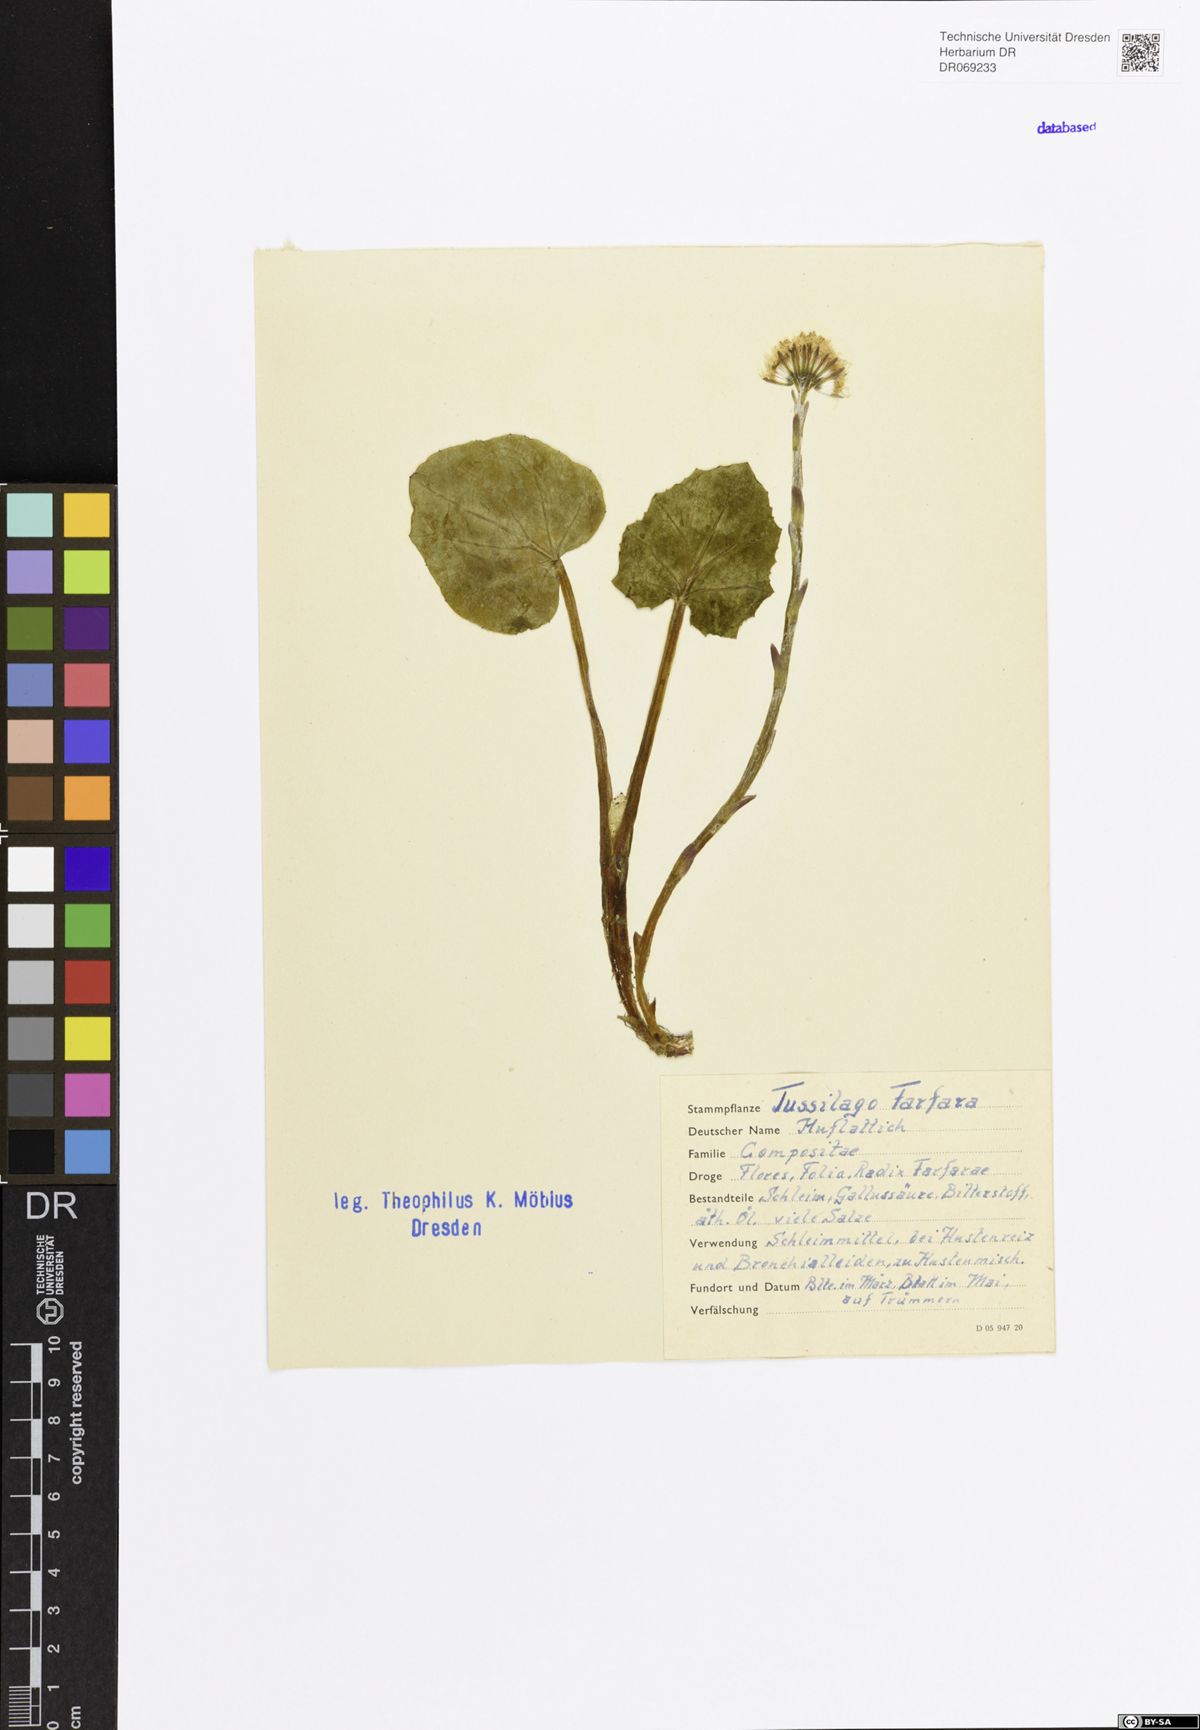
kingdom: Plantae
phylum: Tracheophyta
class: Magnoliopsida
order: Asterales
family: Asteraceae
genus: Tussilago
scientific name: Tussilago farfara
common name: Coltsfoot
